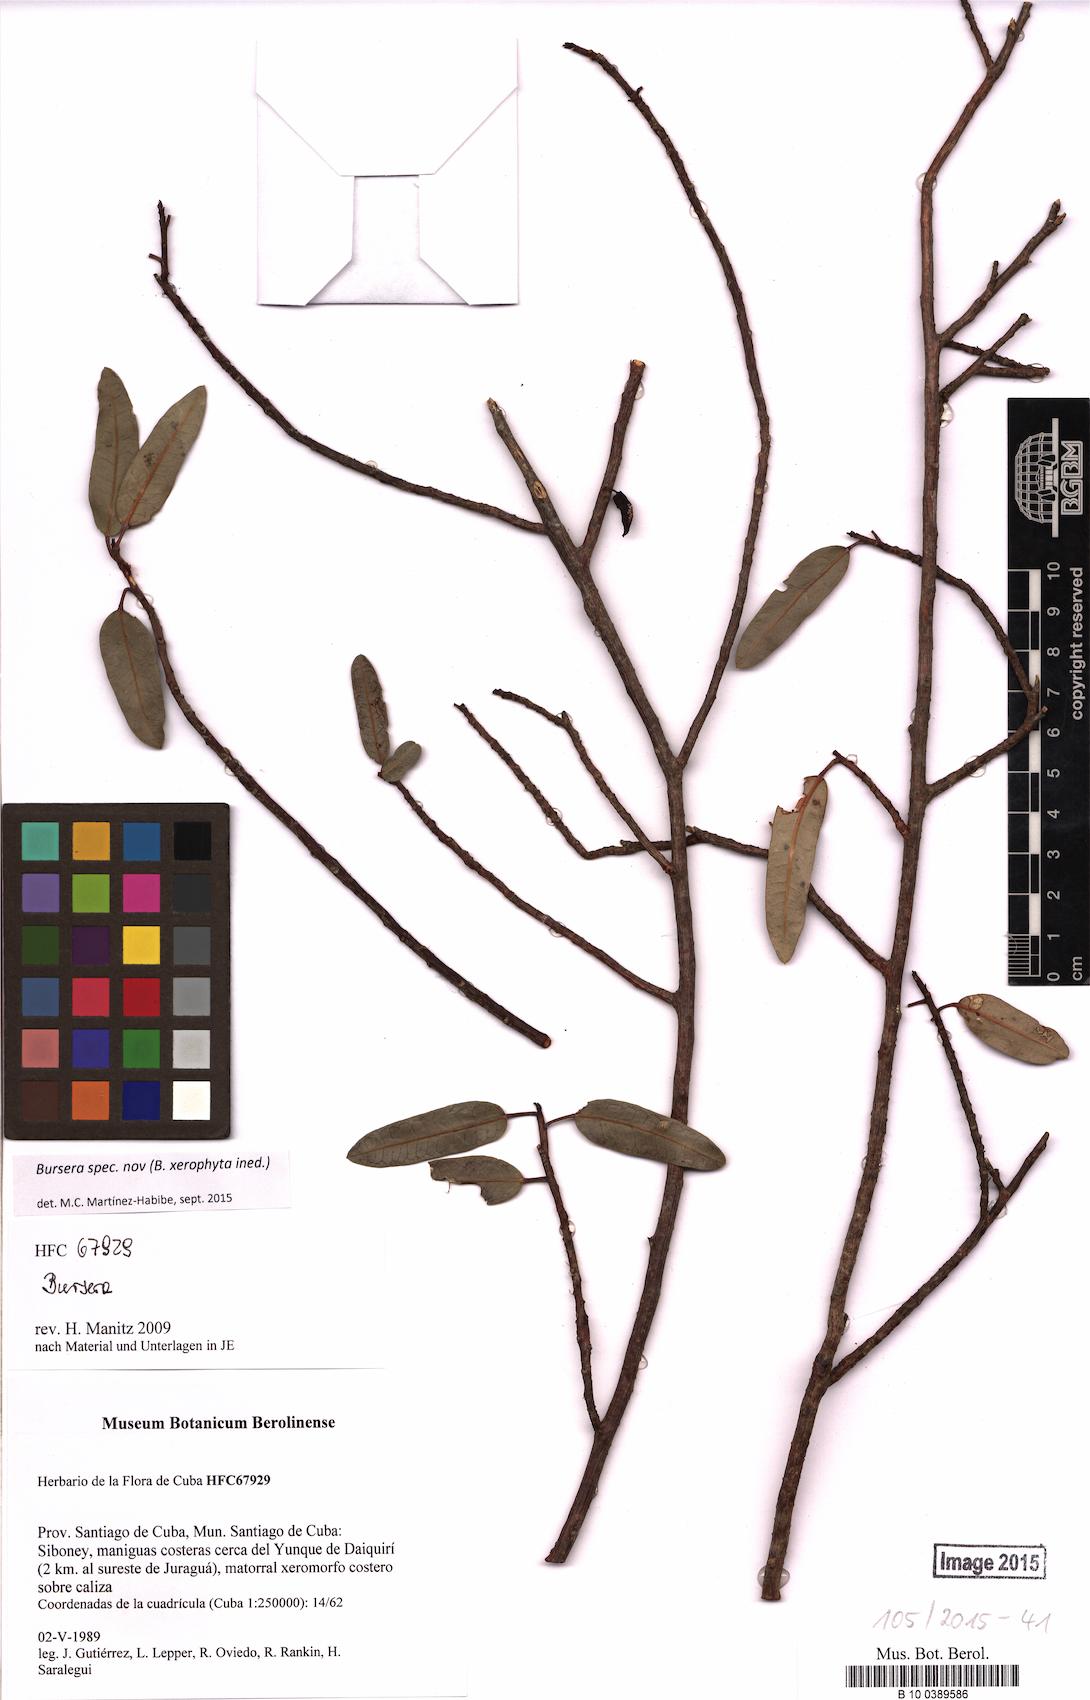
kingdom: Plantae
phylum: Tracheophyta
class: Magnoliopsida
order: Sapindales
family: Burseraceae
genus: Bursera
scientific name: Bursera
